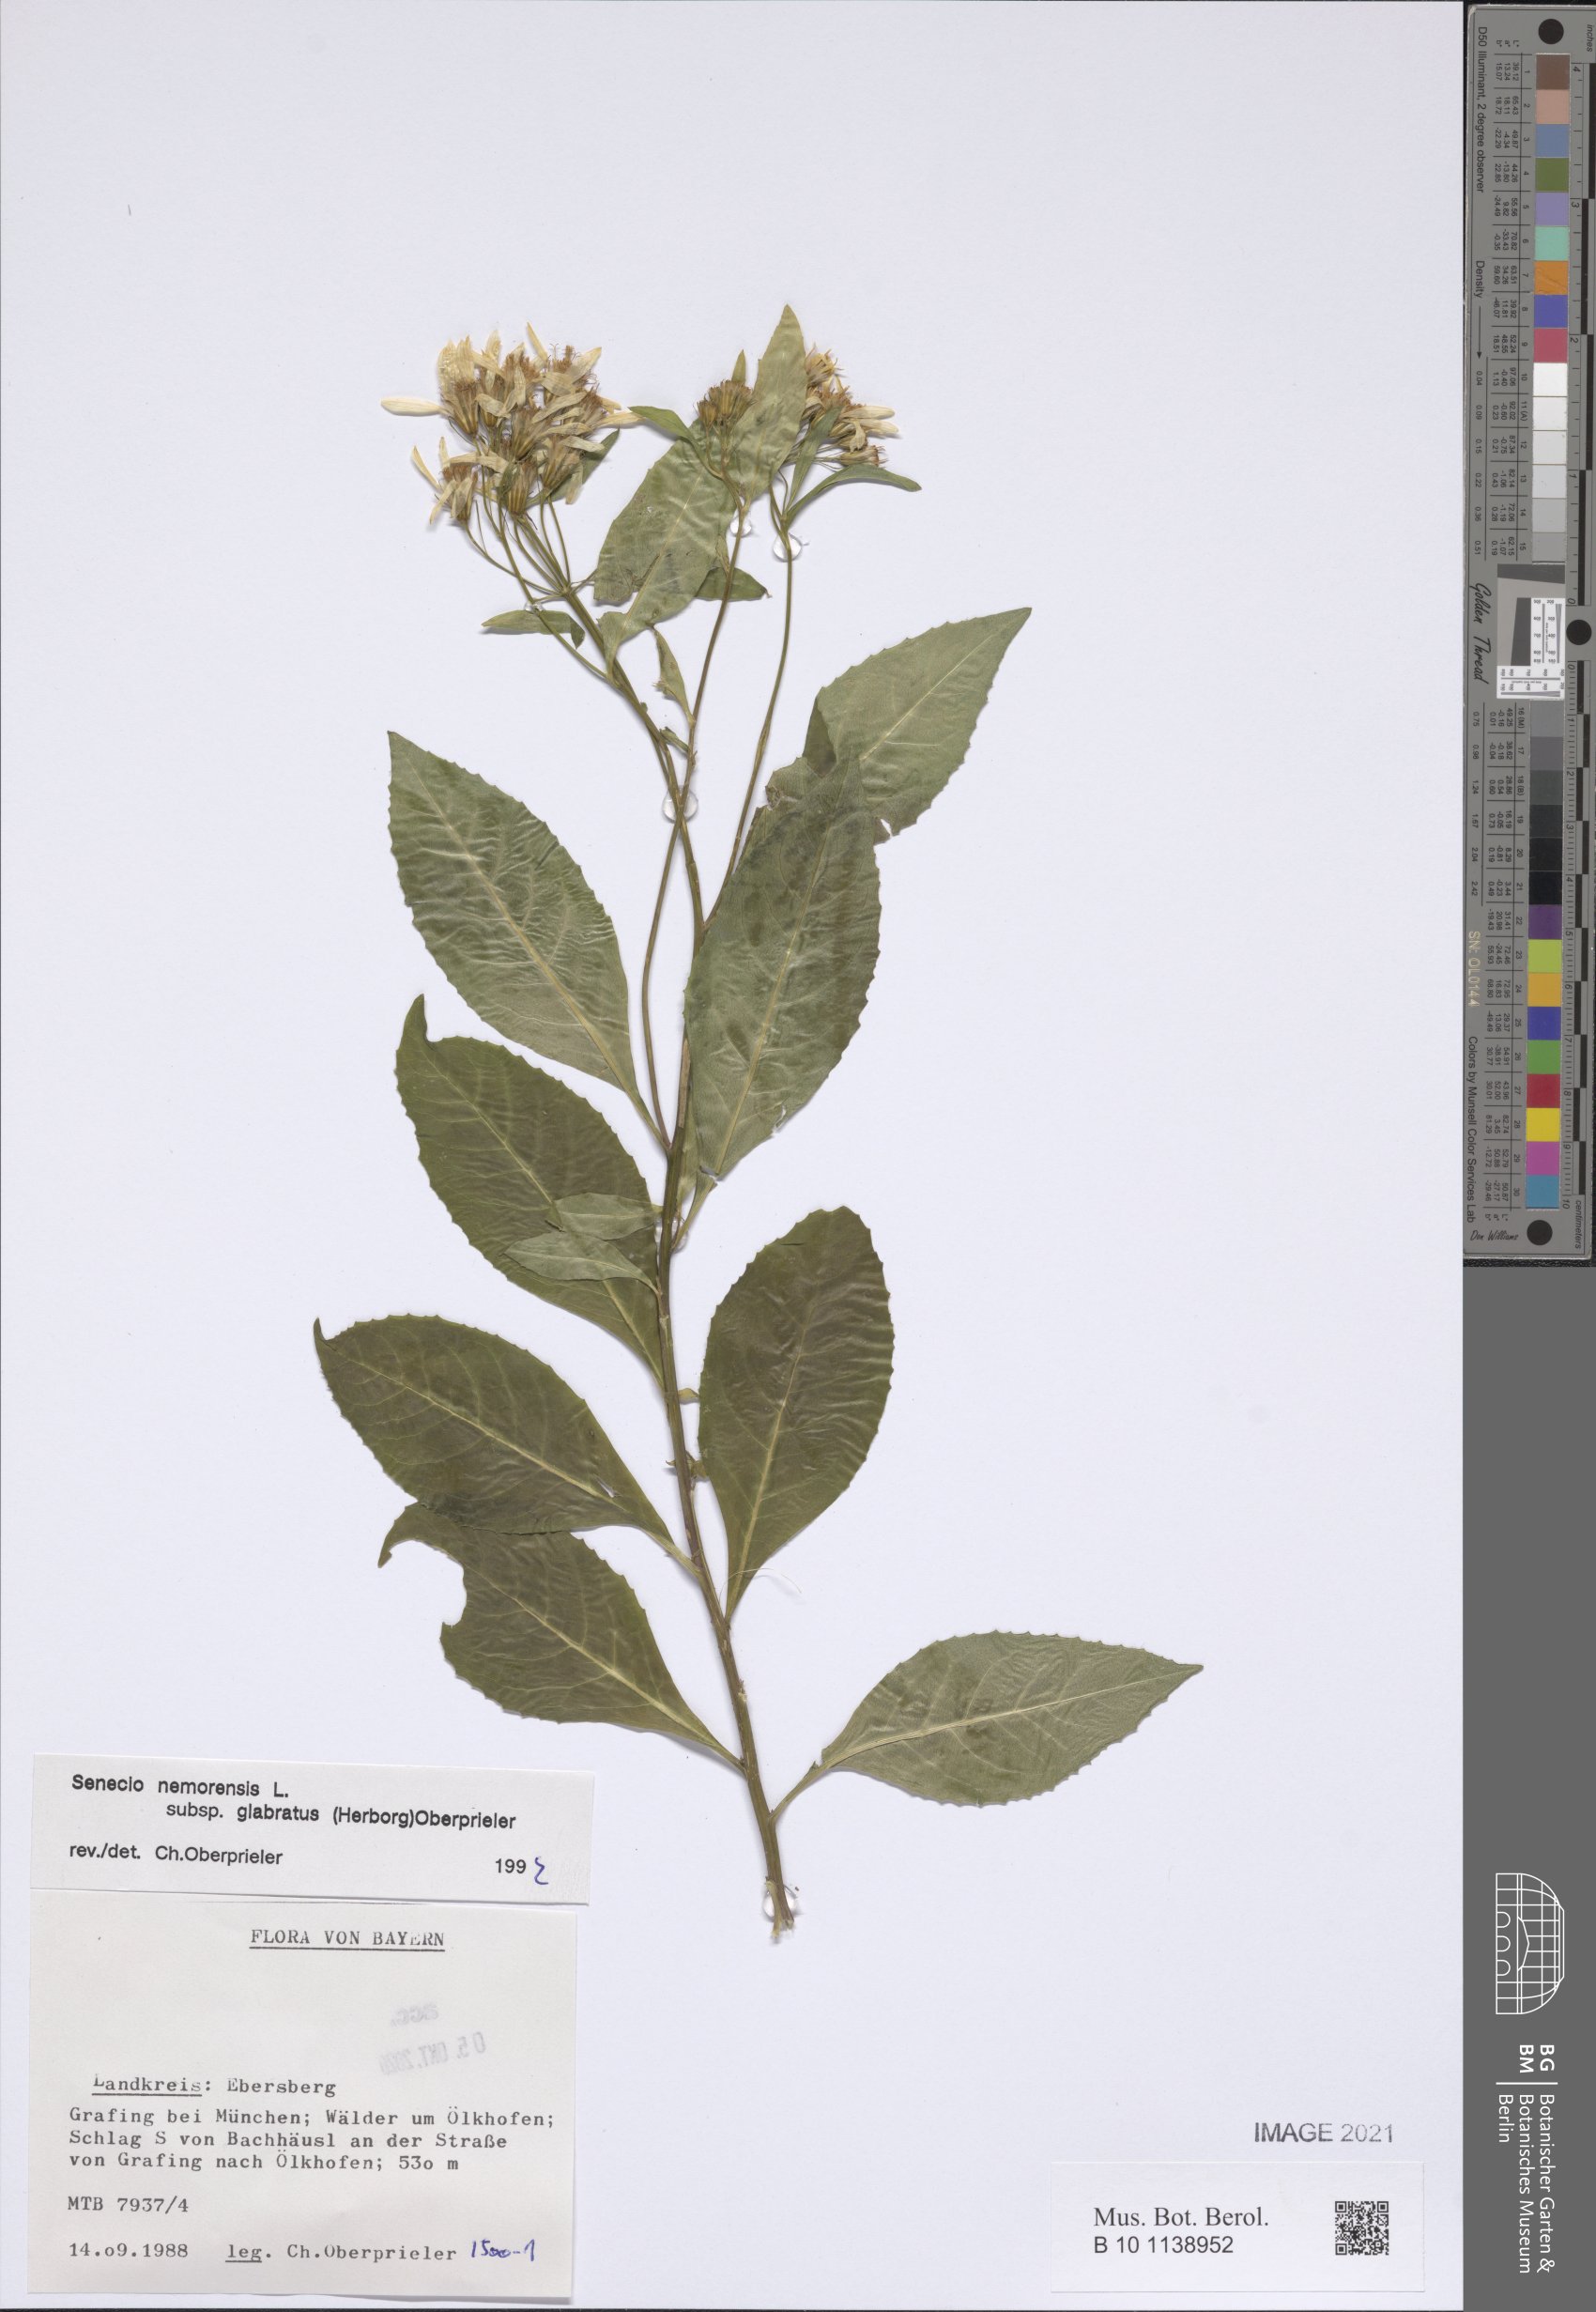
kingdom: Plantae
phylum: Tracheophyta
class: Magnoliopsida
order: Asterales
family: Asteraceae
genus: Senecio
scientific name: Senecio germanicus
